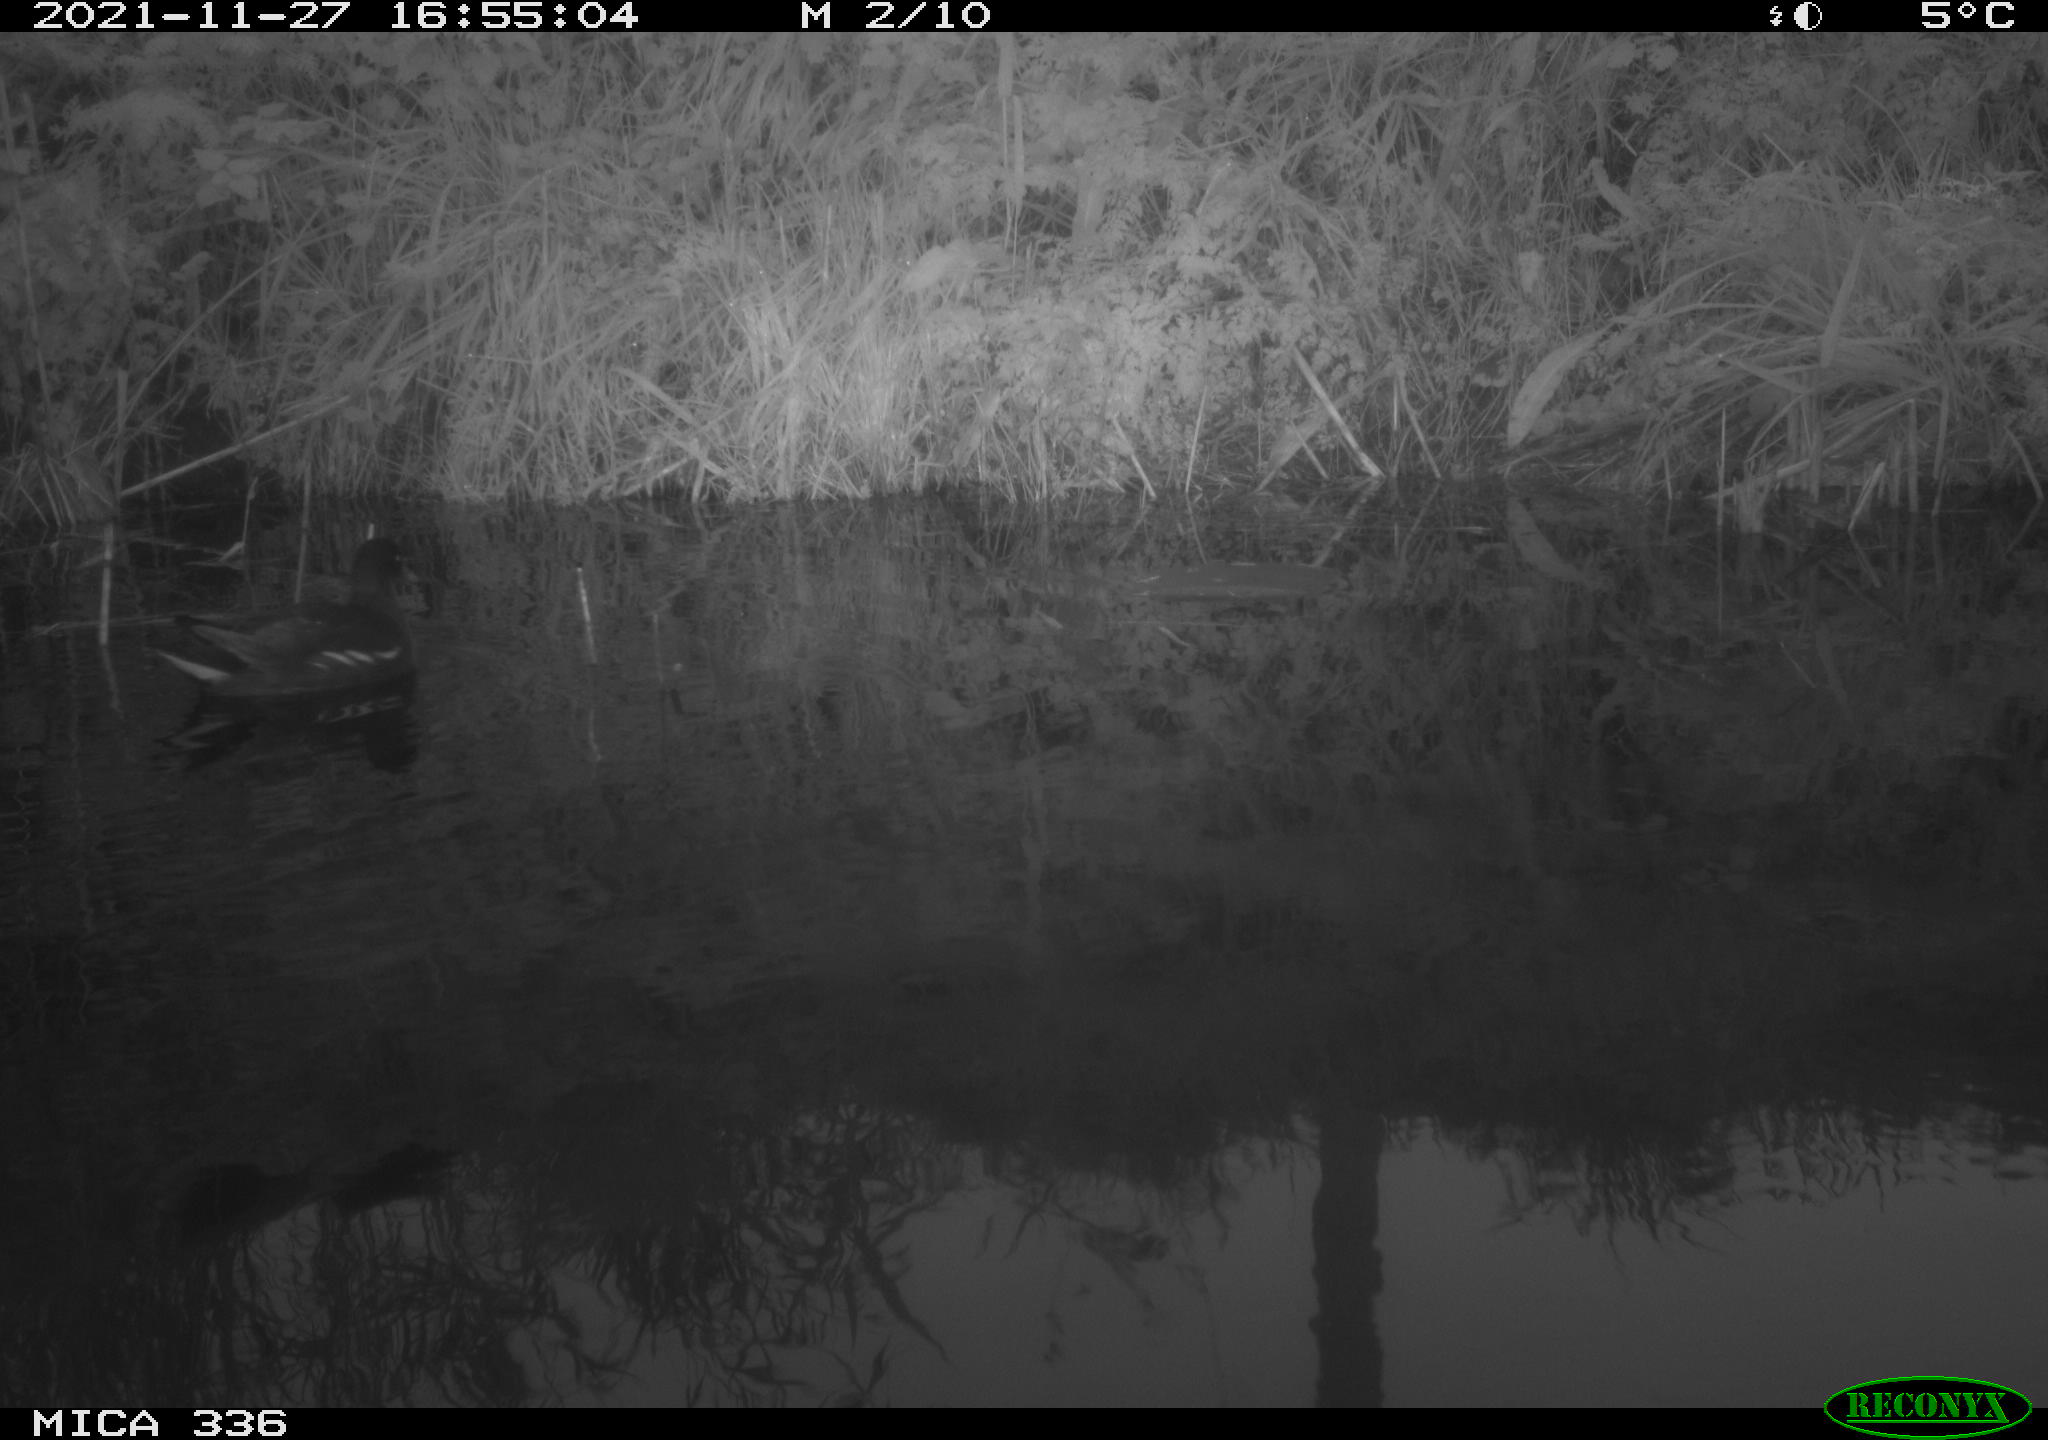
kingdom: Animalia
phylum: Chordata
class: Aves
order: Gruiformes
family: Rallidae
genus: Gallinula
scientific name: Gallinula chloropus
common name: Common moorhen
